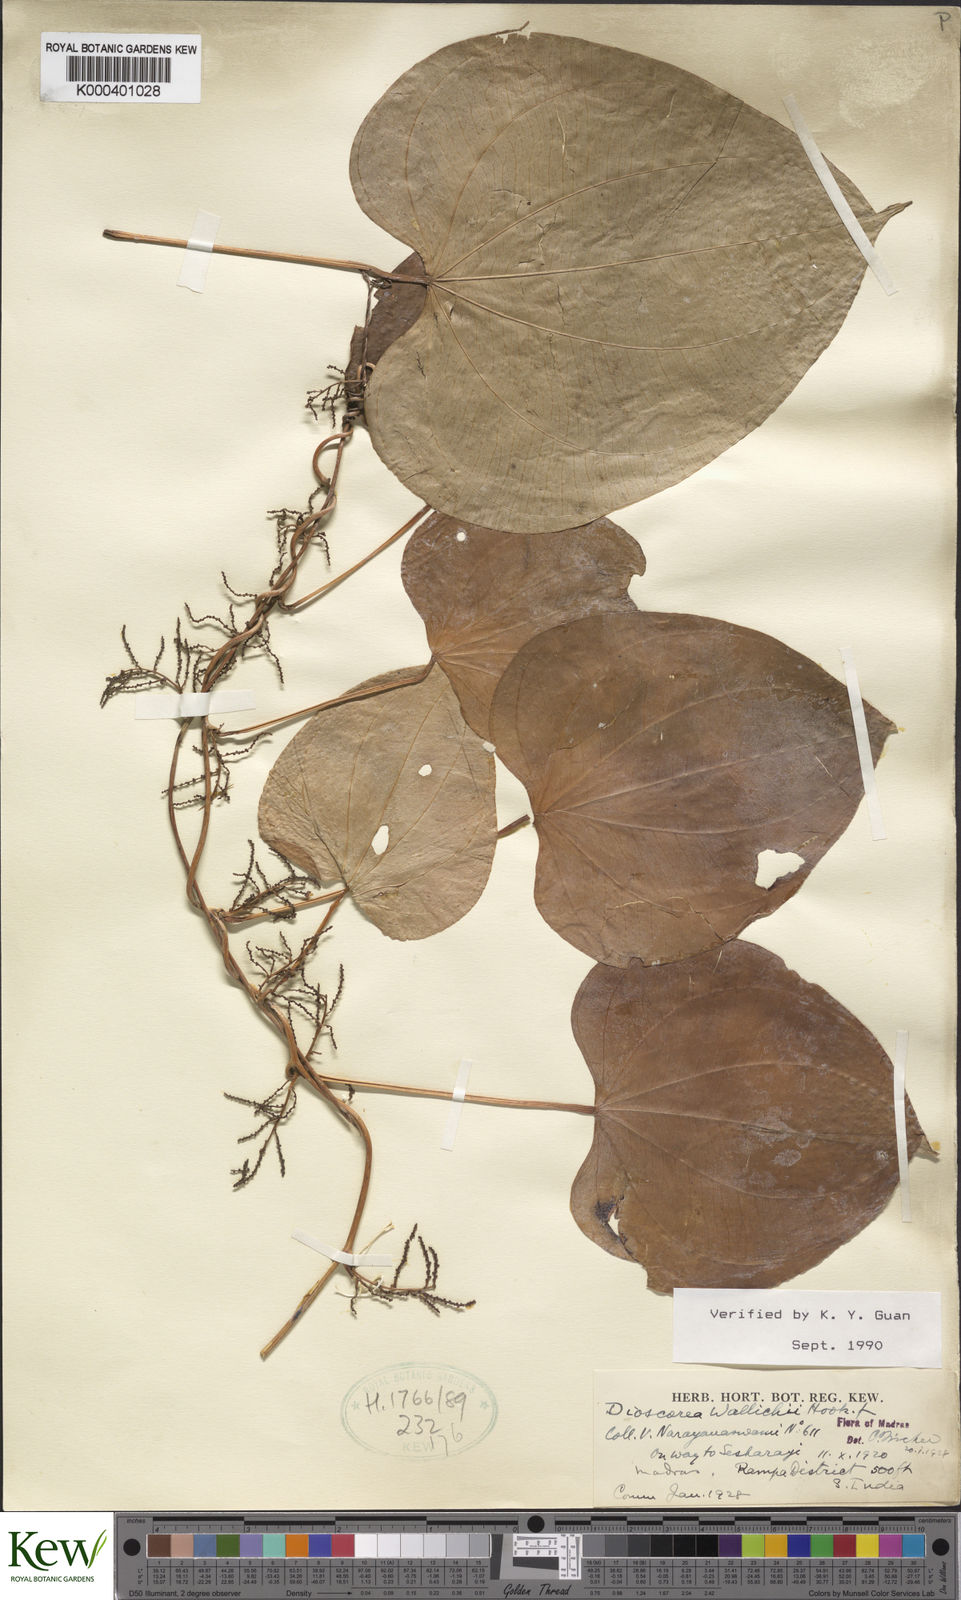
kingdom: Plantae
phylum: Tracheophyta
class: Liliopsida
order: Dioscoreales
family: Dioscoreaceae
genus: Dioscorea
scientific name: Dioscorea wallichii
